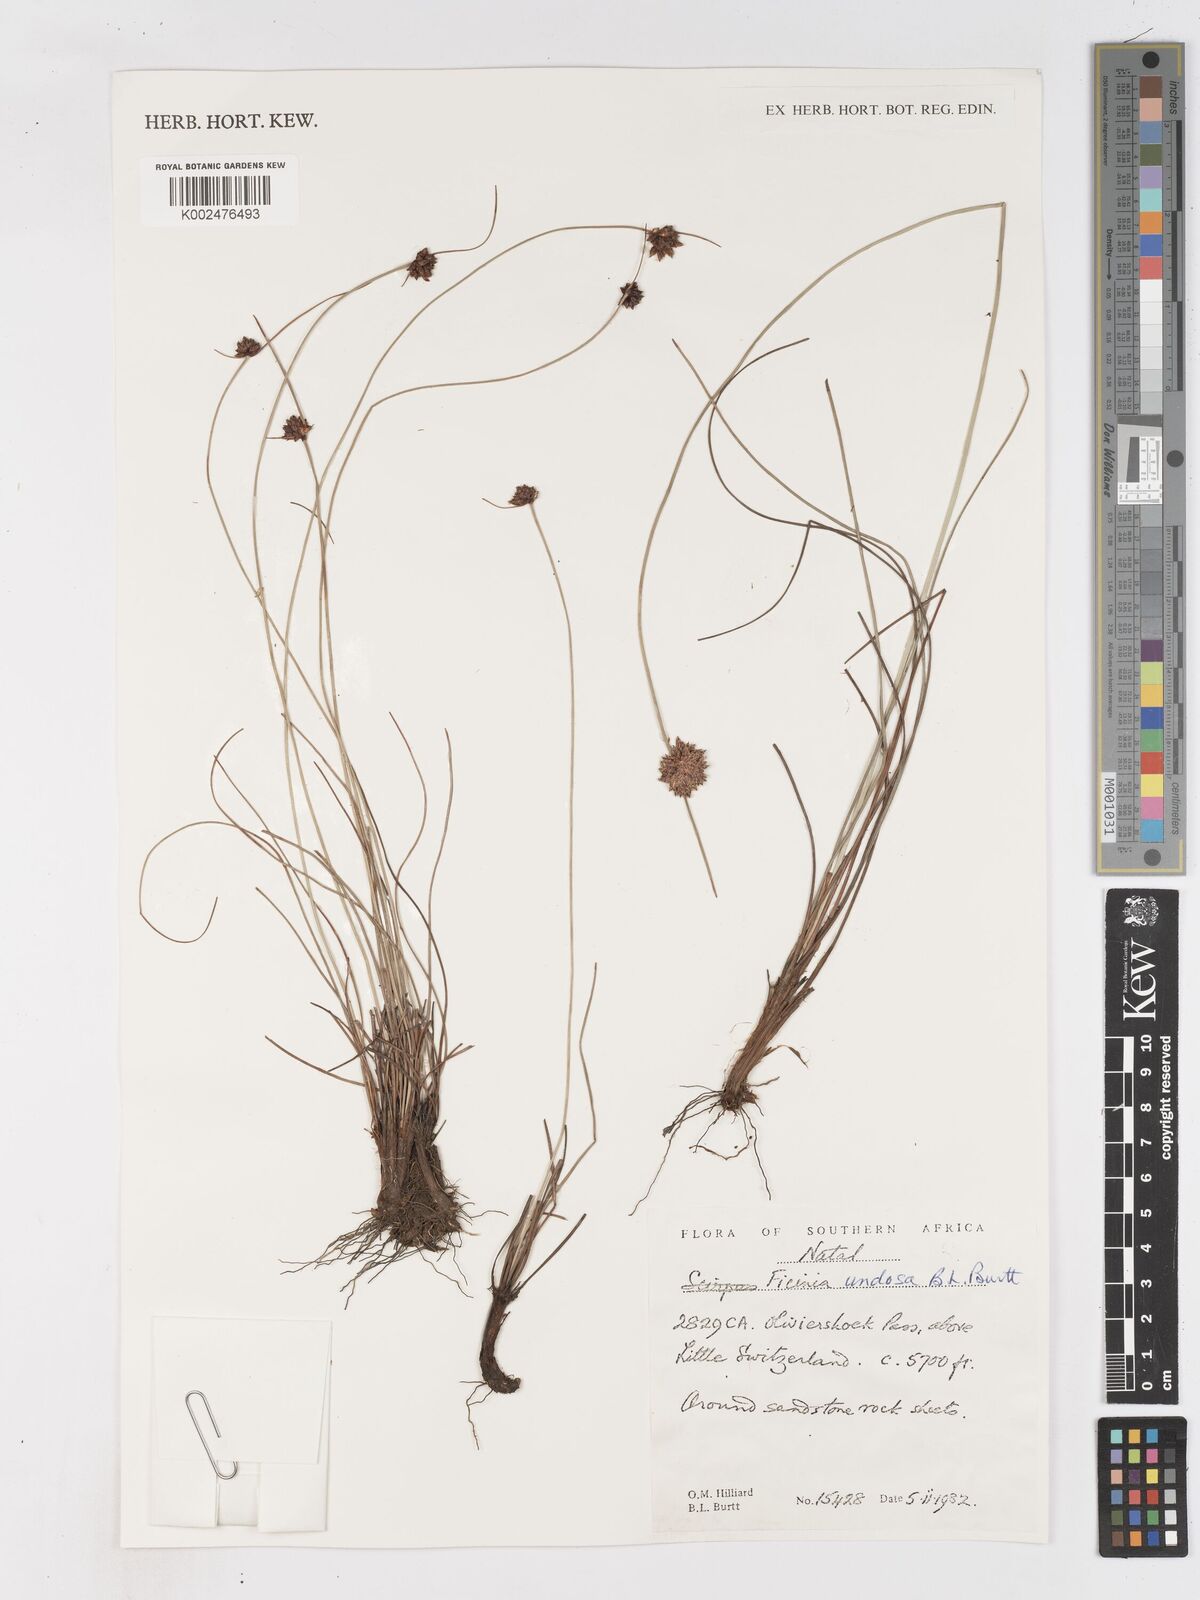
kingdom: Plantae
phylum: Tracheophyta
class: Liliopsida
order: Poales
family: Cyperaceae
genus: Ficinia
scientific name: Ficinia undosa
